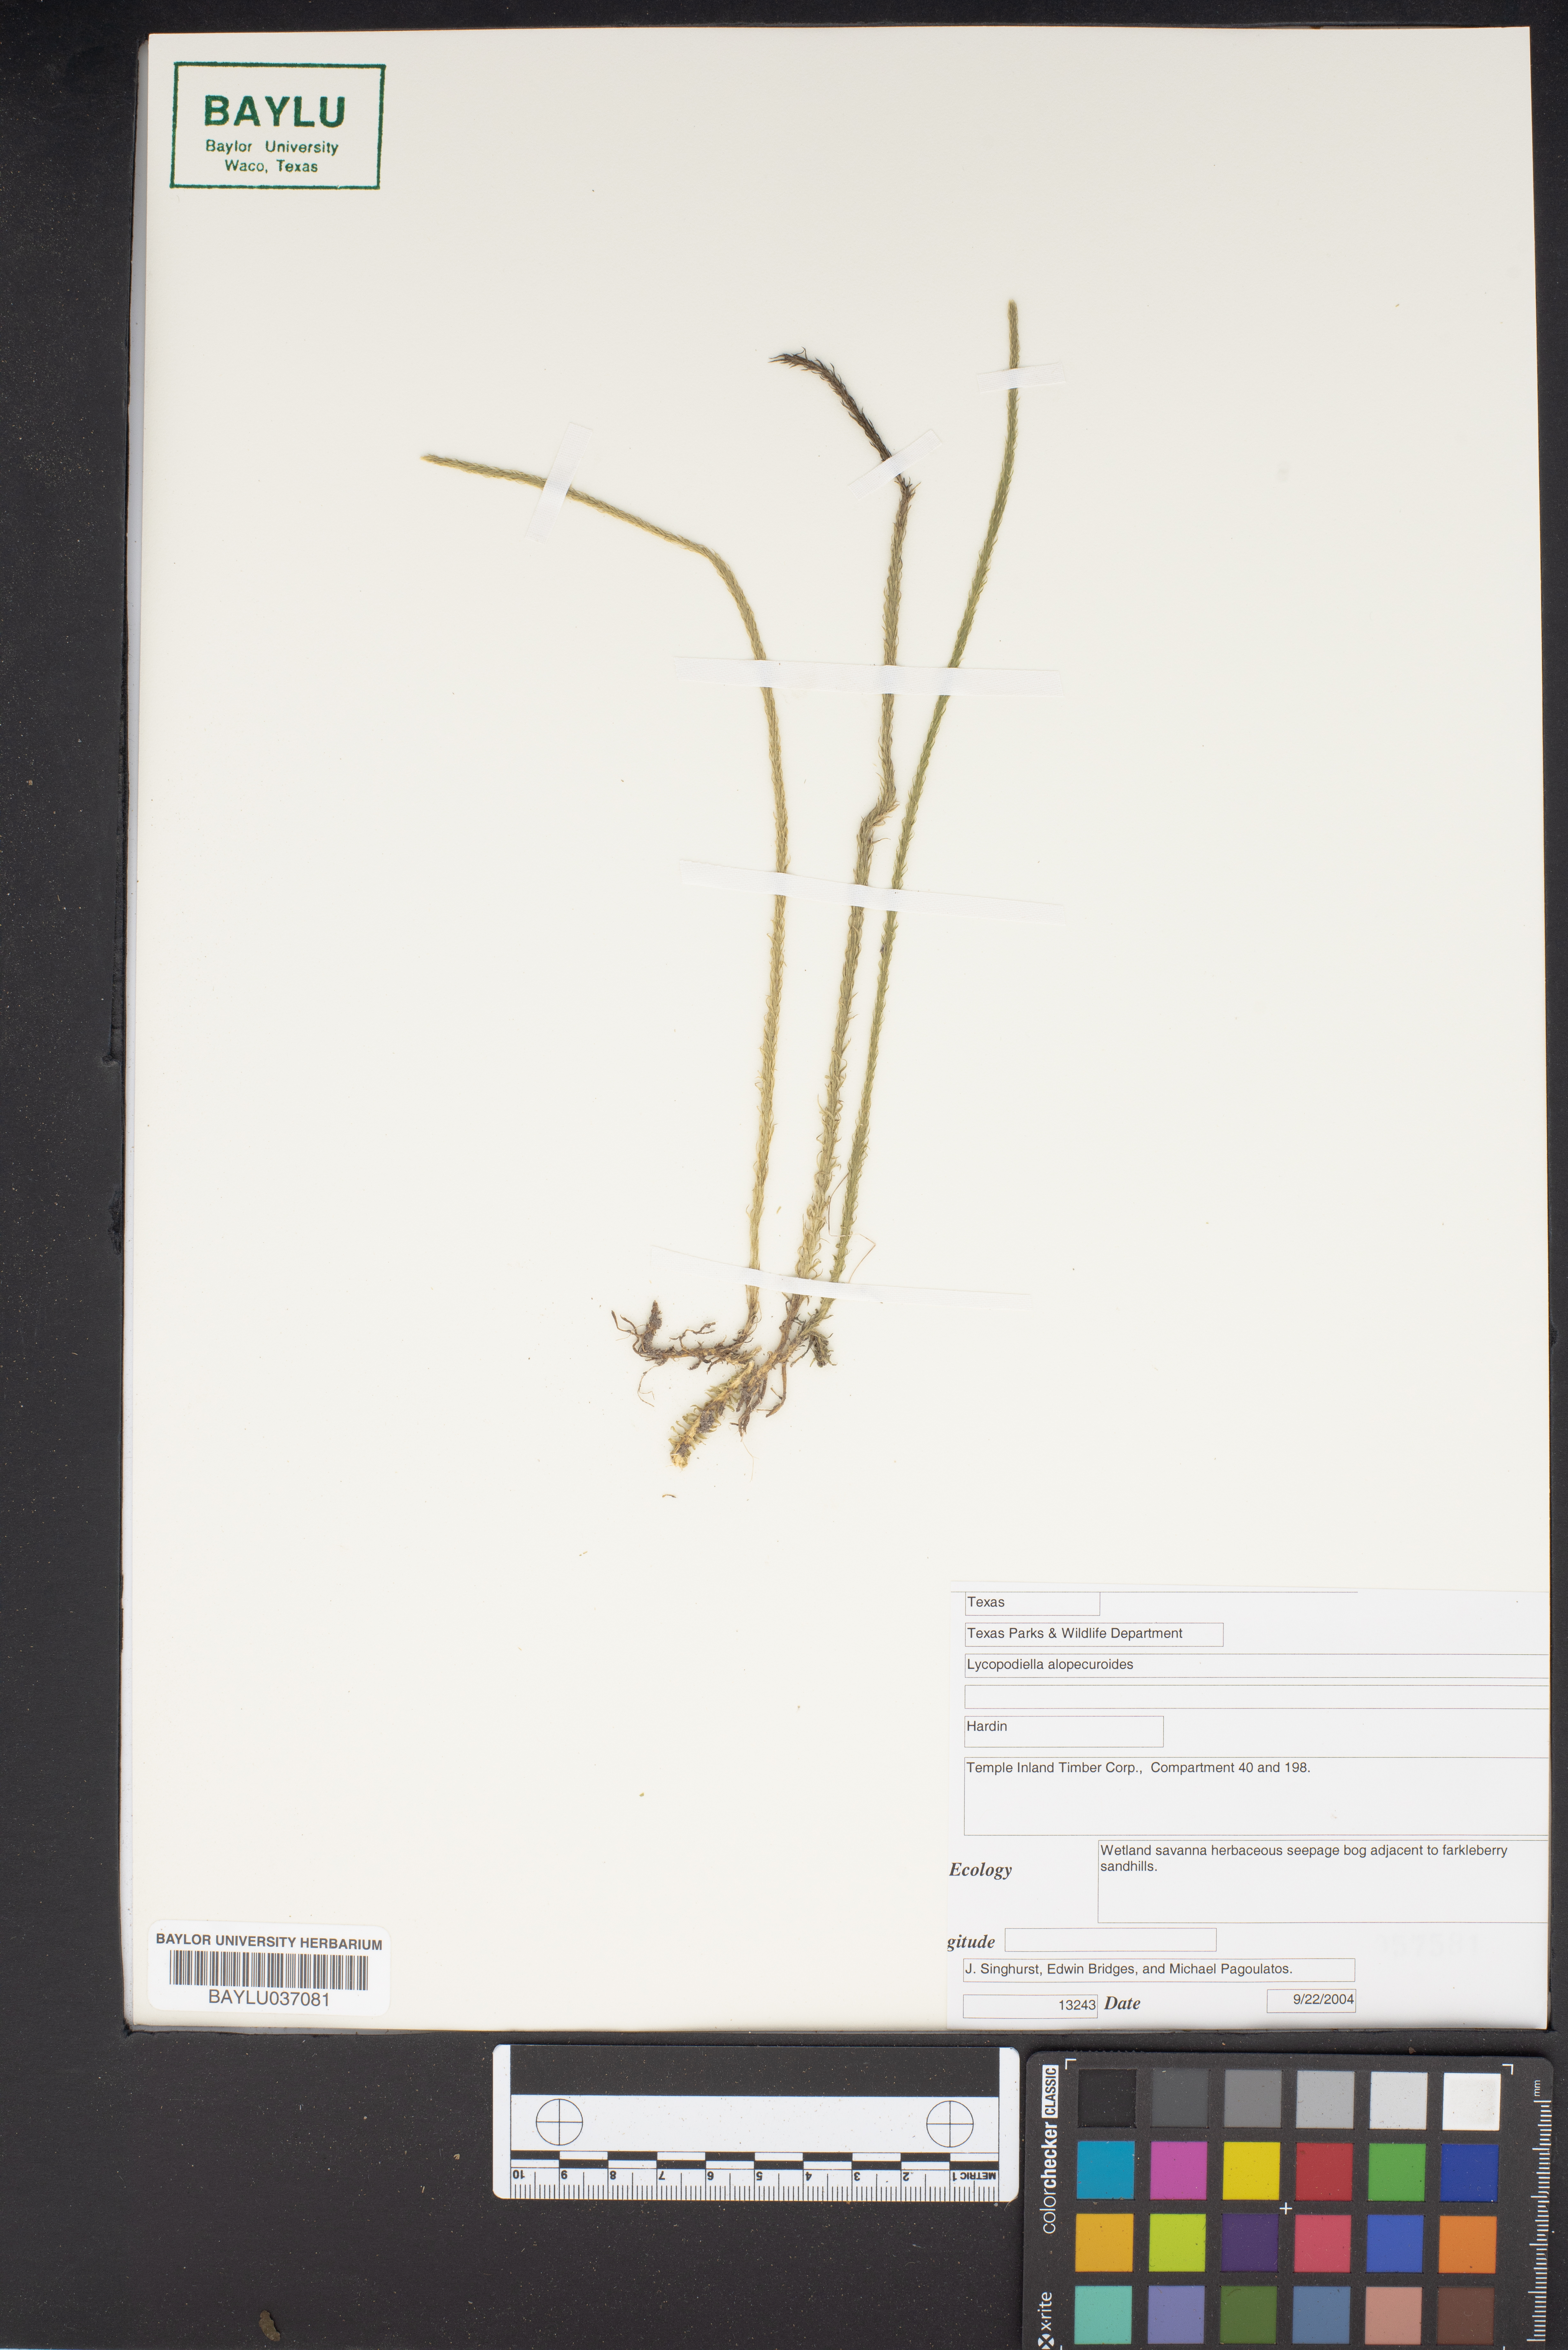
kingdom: Plantae
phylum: Tracheophyta
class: Lycopodiopsida
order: Lycopodiales
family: Lycopodiaceae
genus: Lycopodiella
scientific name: Lycopodiella alopecuroides
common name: Foxtail clubmoss
